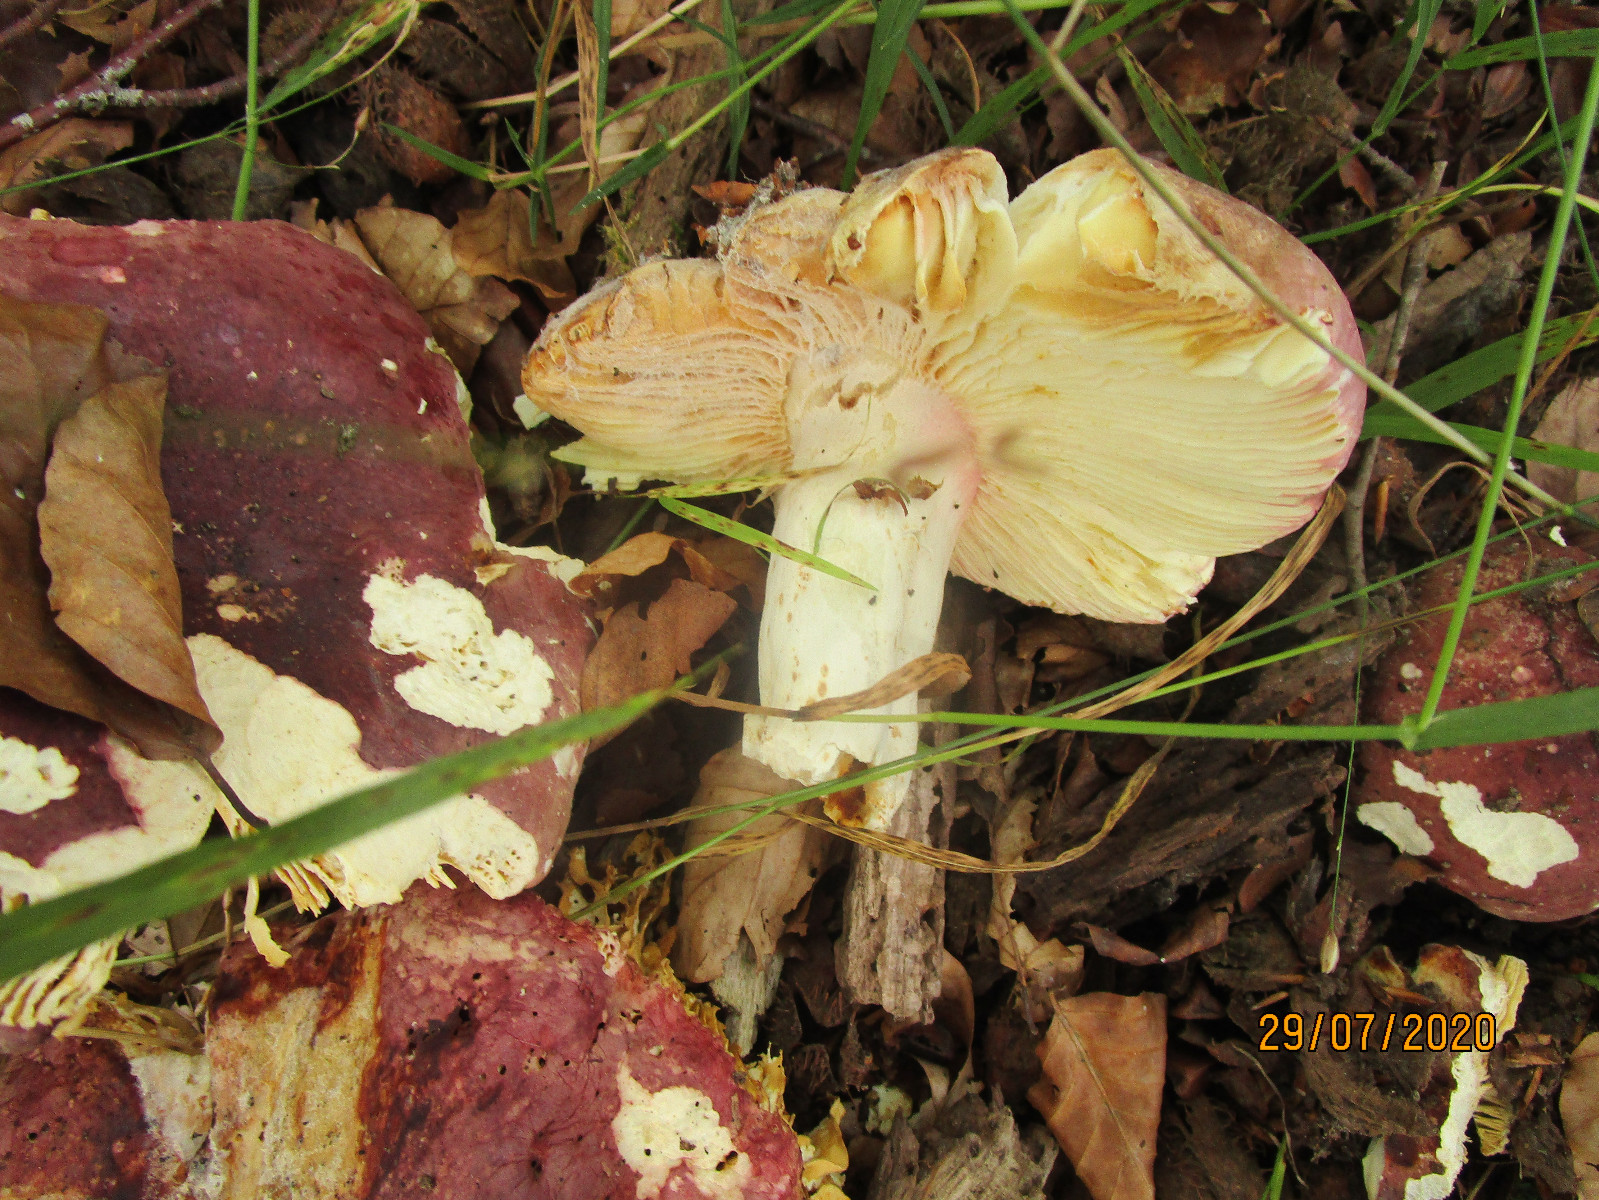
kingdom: Fungi
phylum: Basidiomycota
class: Agaricomycetes
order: Russulales
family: Russulaceae
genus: Russula
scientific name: Russula olivacea
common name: stor skørhat
